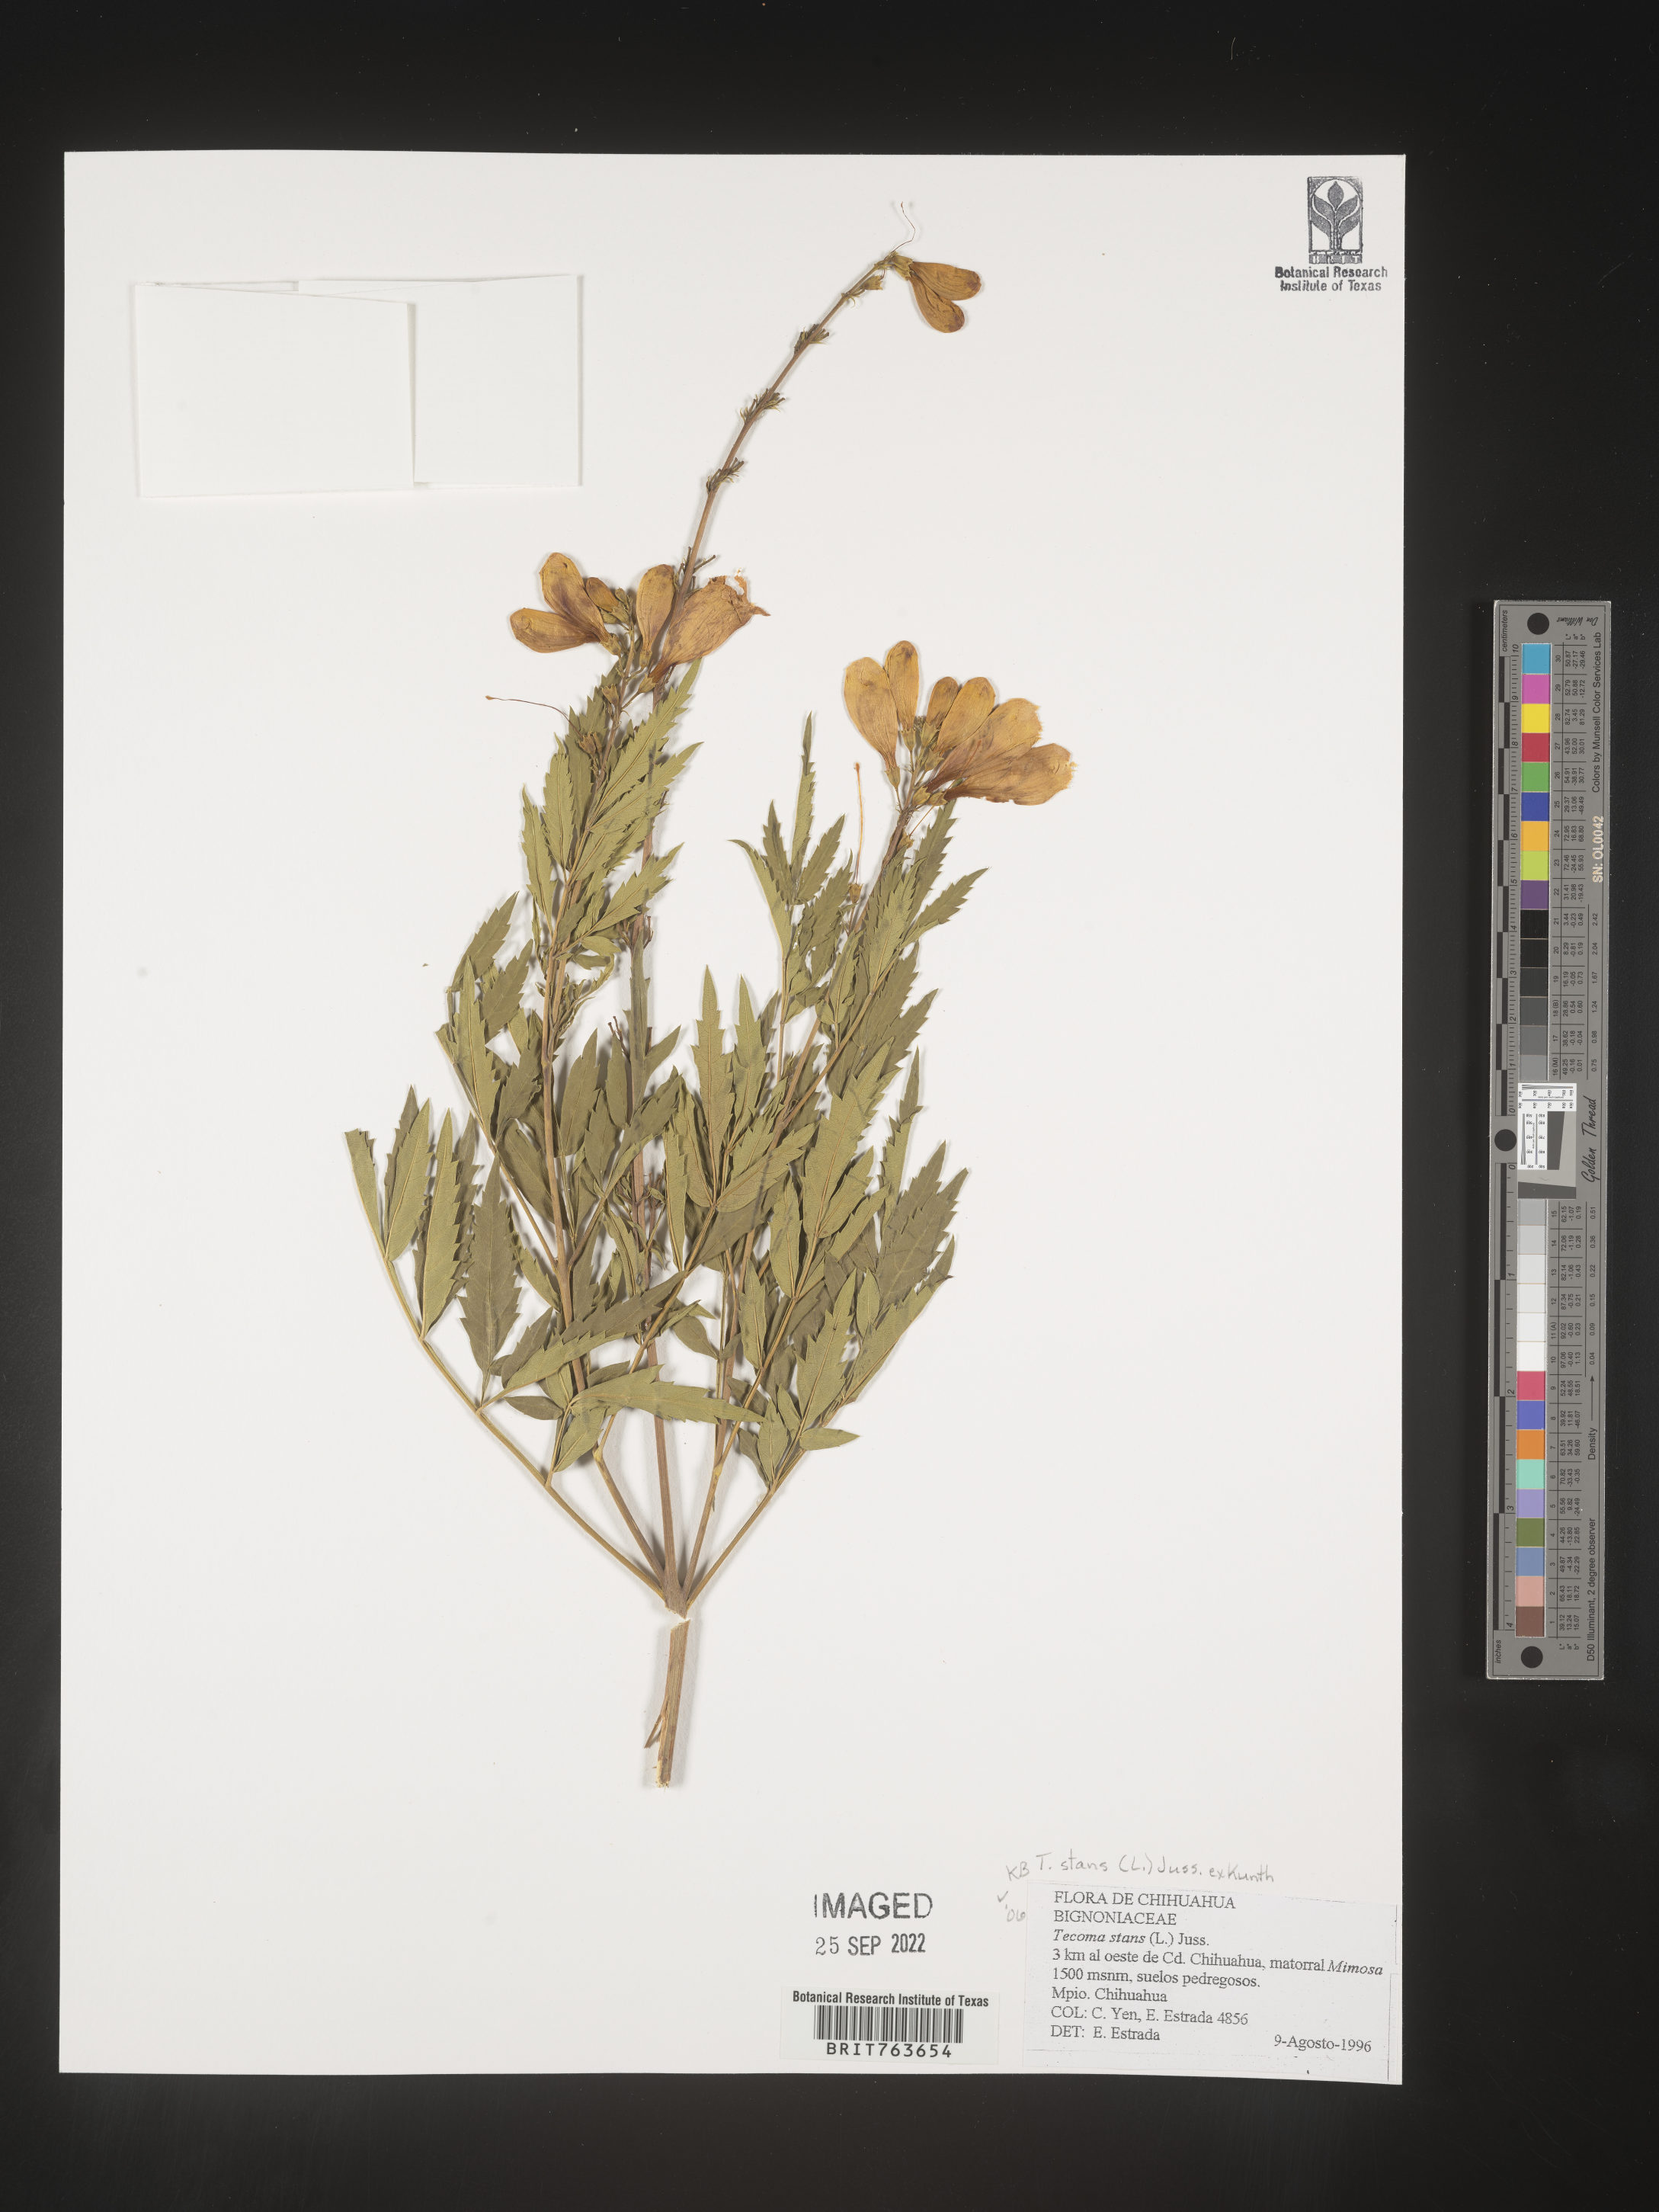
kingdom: Plantae
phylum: Tracheophyta
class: Magnoliopsida
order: Lamiales
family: Bignoniaceae
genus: Tecoma
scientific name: Tecoma
